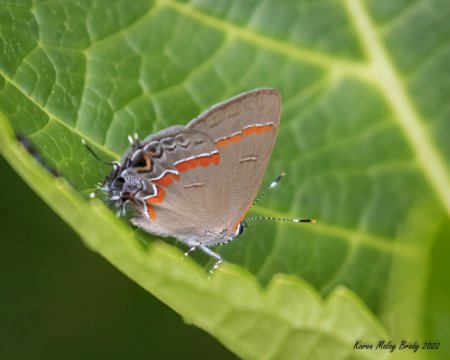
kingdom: Animalia
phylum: Arthropoda
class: Insecta
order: Lepidoptera
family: Lycaenidae
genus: Calycopis
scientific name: Calycopis cecrops
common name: Red-banded Hairstreak
